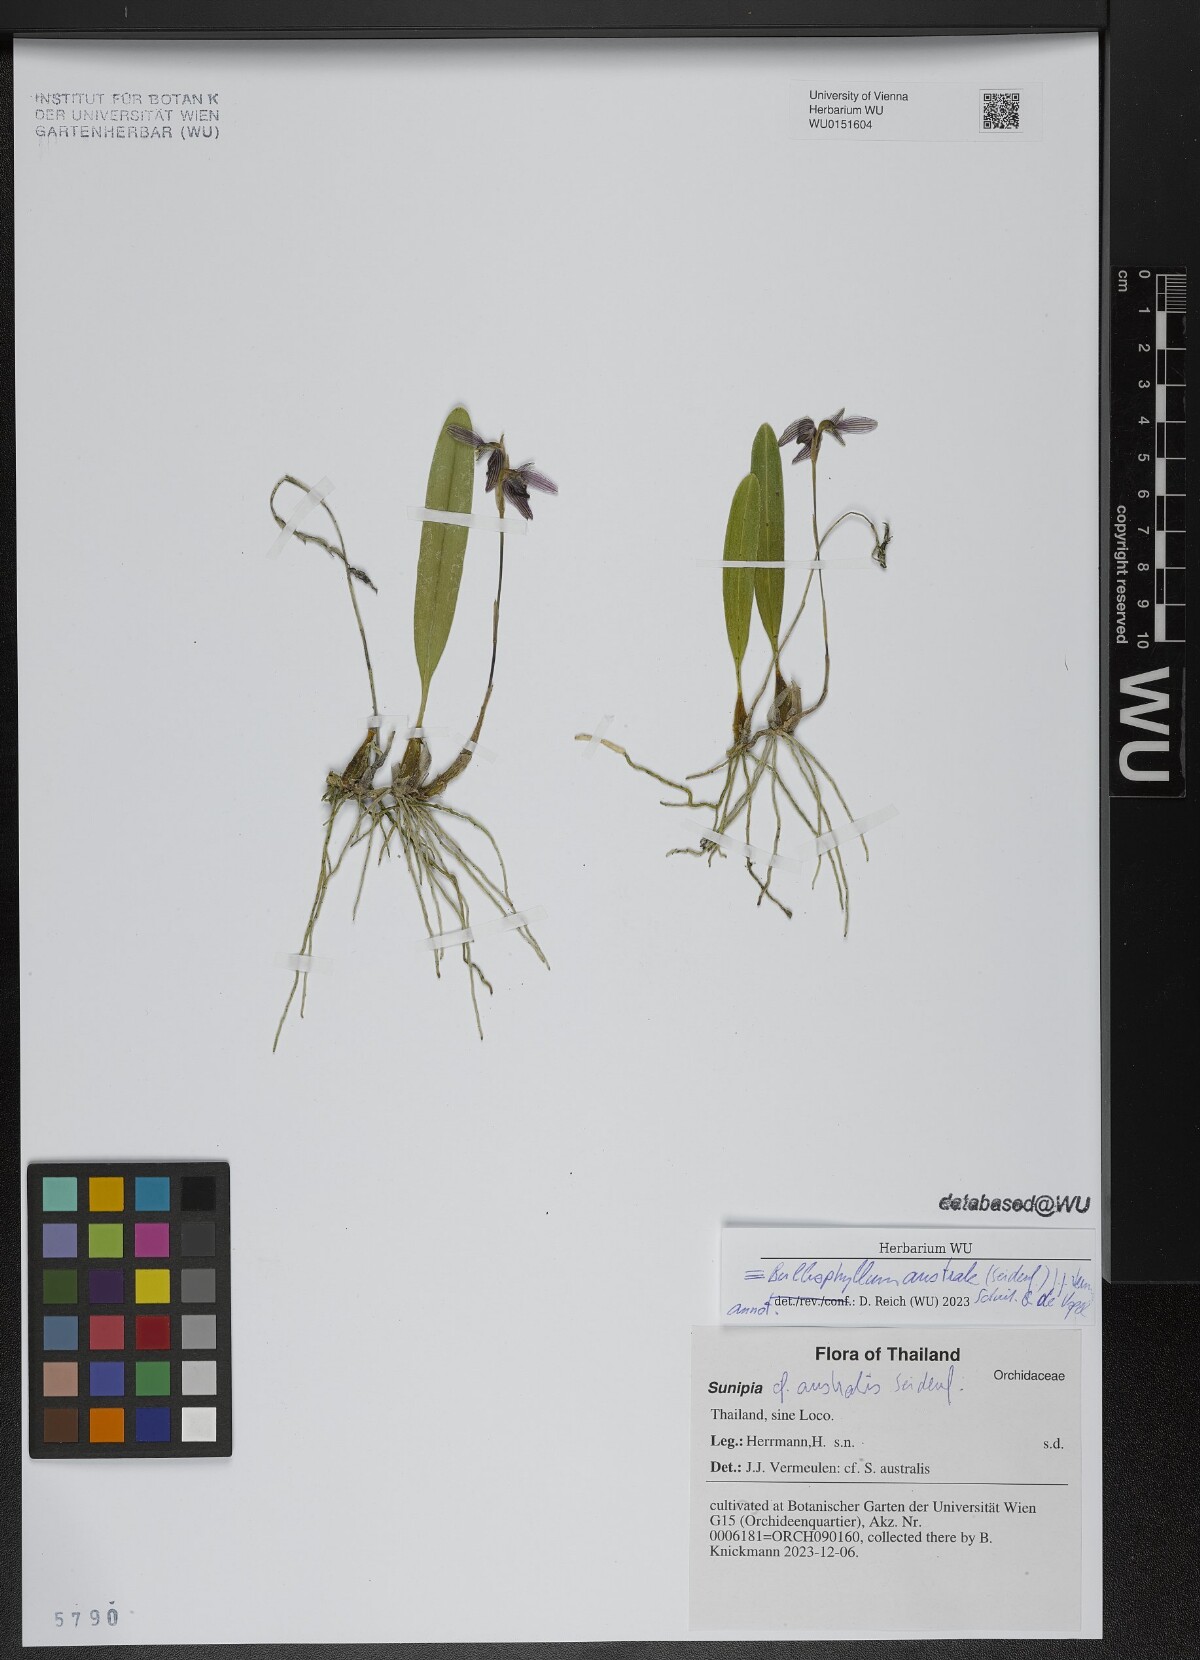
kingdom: Plantae
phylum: Tracheophyta
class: Liliopsida
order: Asparagales
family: Orchidaceae
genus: Bulbophyllum
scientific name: Bulbophyllum australe
